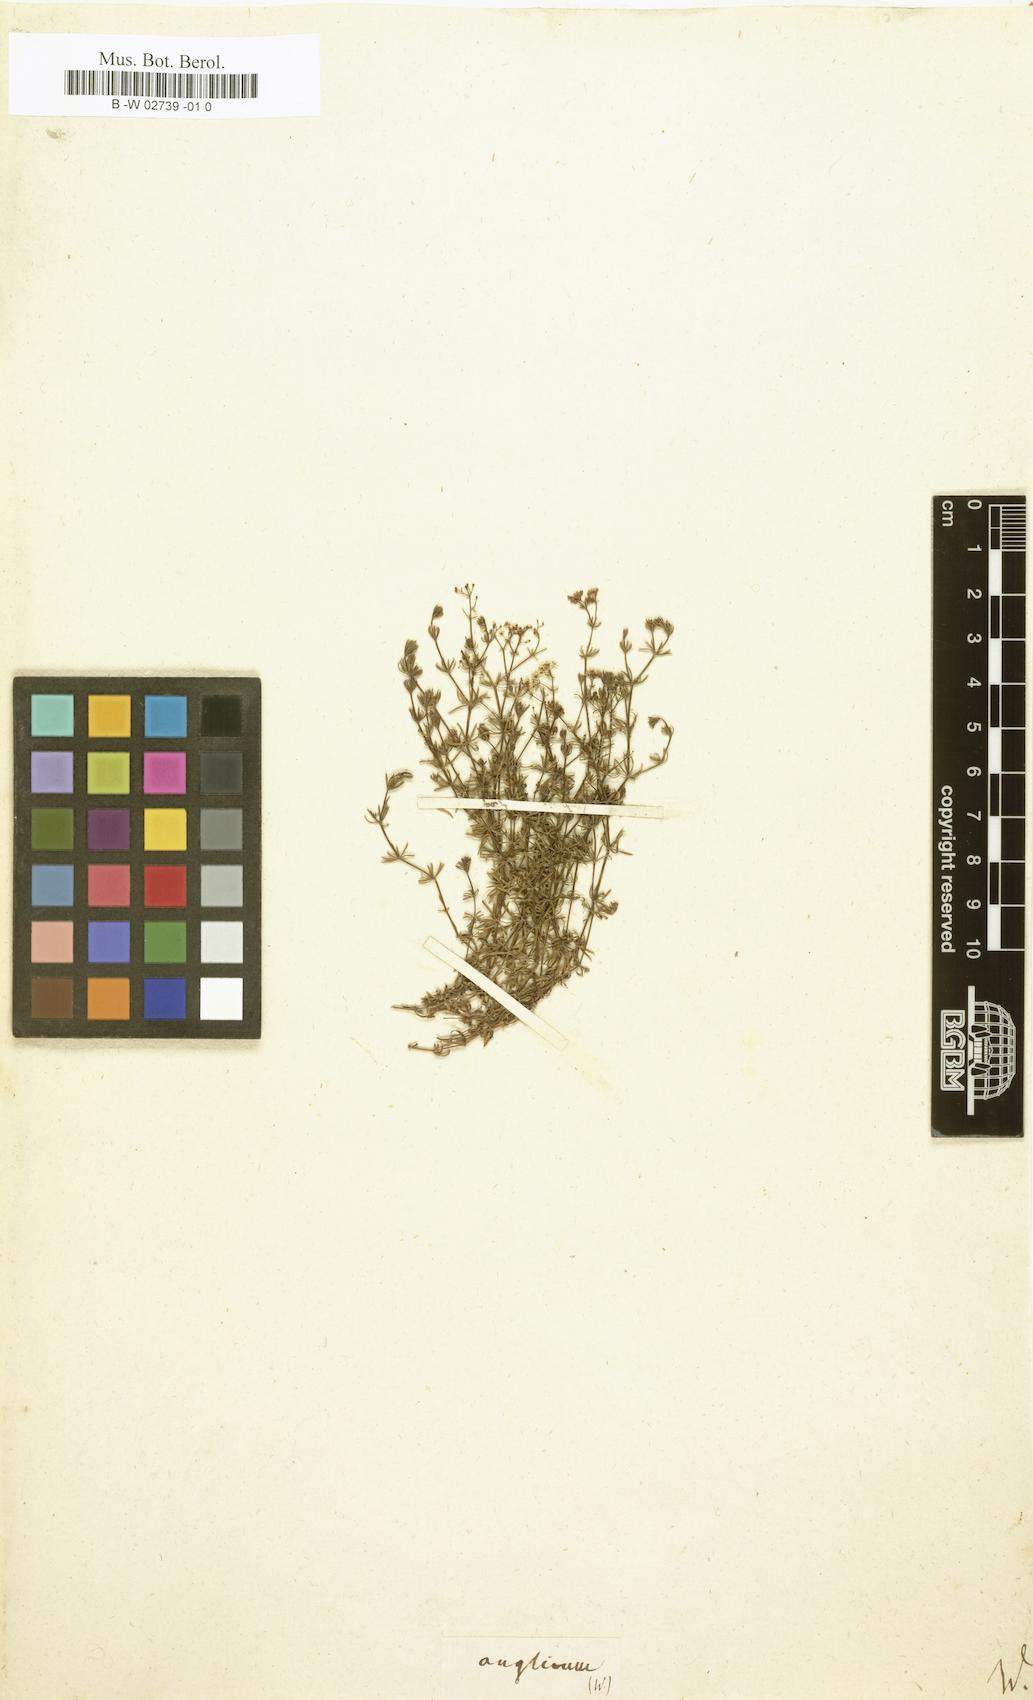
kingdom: Plantae
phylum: Tracheophyta
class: Magnoliopsida
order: Gentianales
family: Rubiaceae
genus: Galium
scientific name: Galium anglicum
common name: English bedstraw
